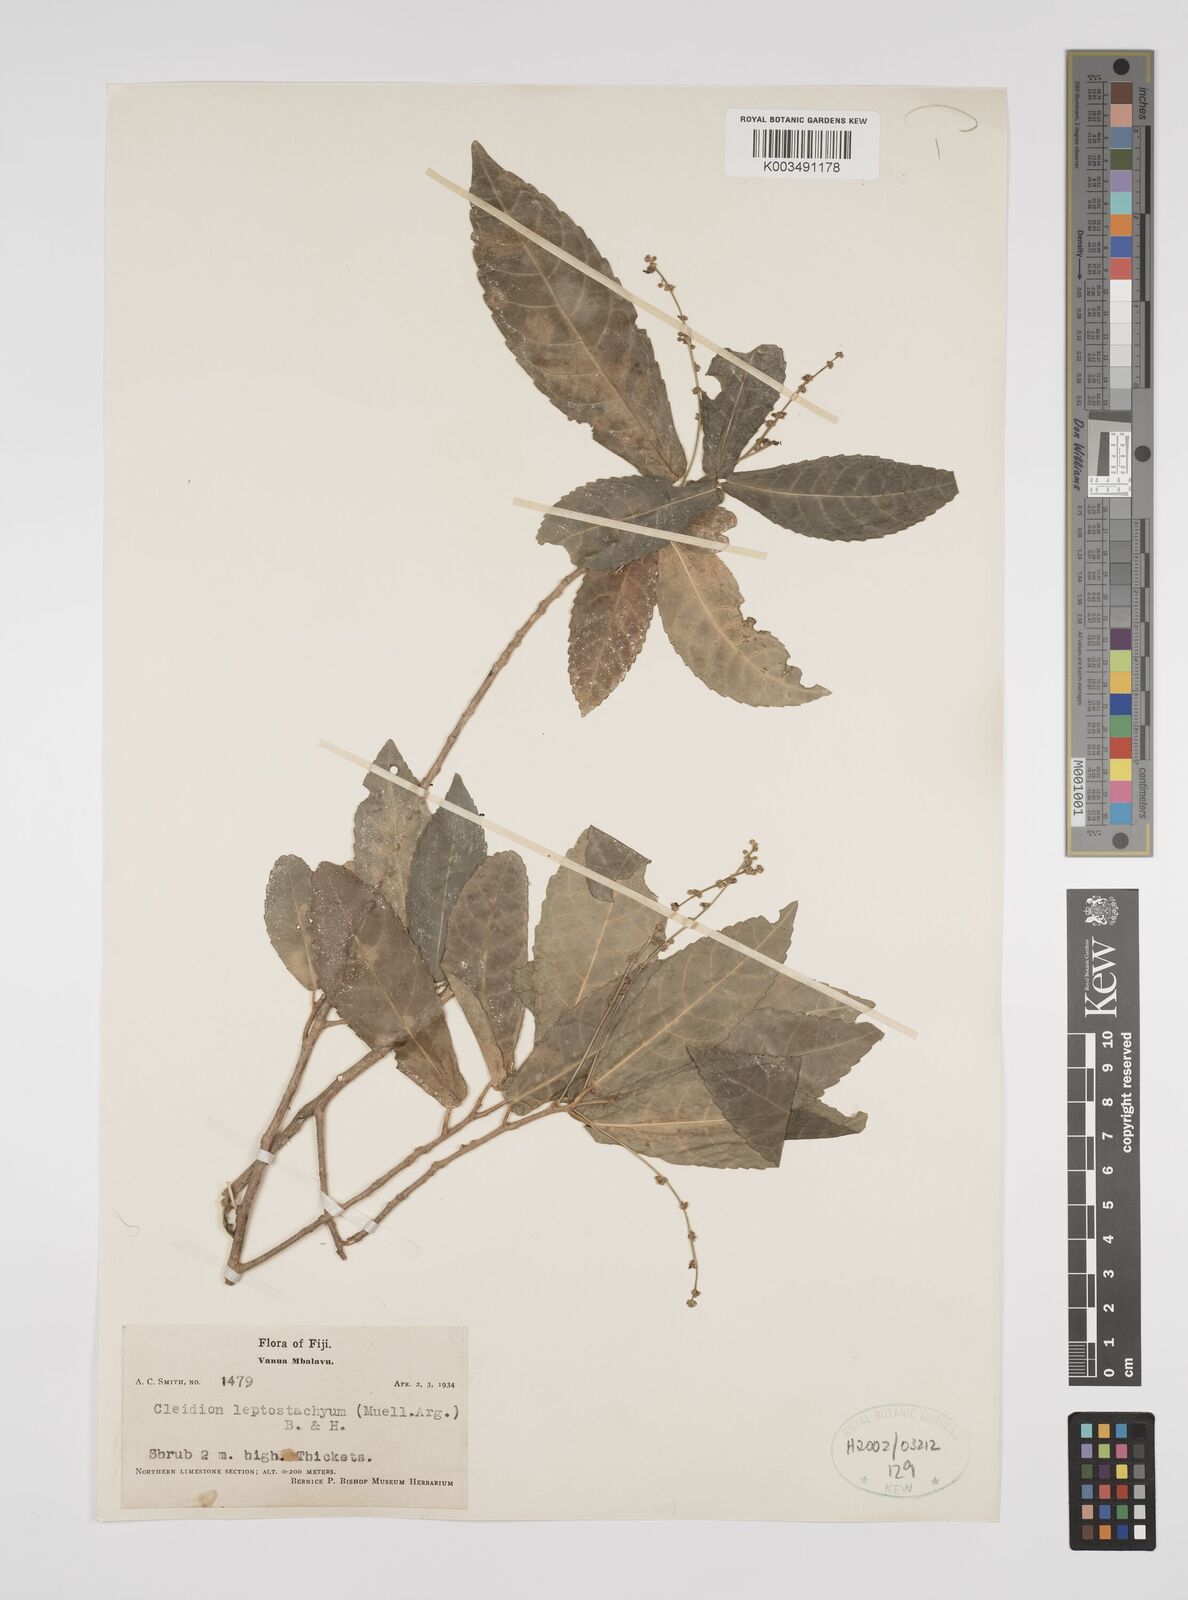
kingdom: Plantae
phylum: Tracheophyta
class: Magnoliopsida
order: Malpighiales
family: Euphorbiaceae
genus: Cleidion
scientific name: Cleidion leptostachyum
